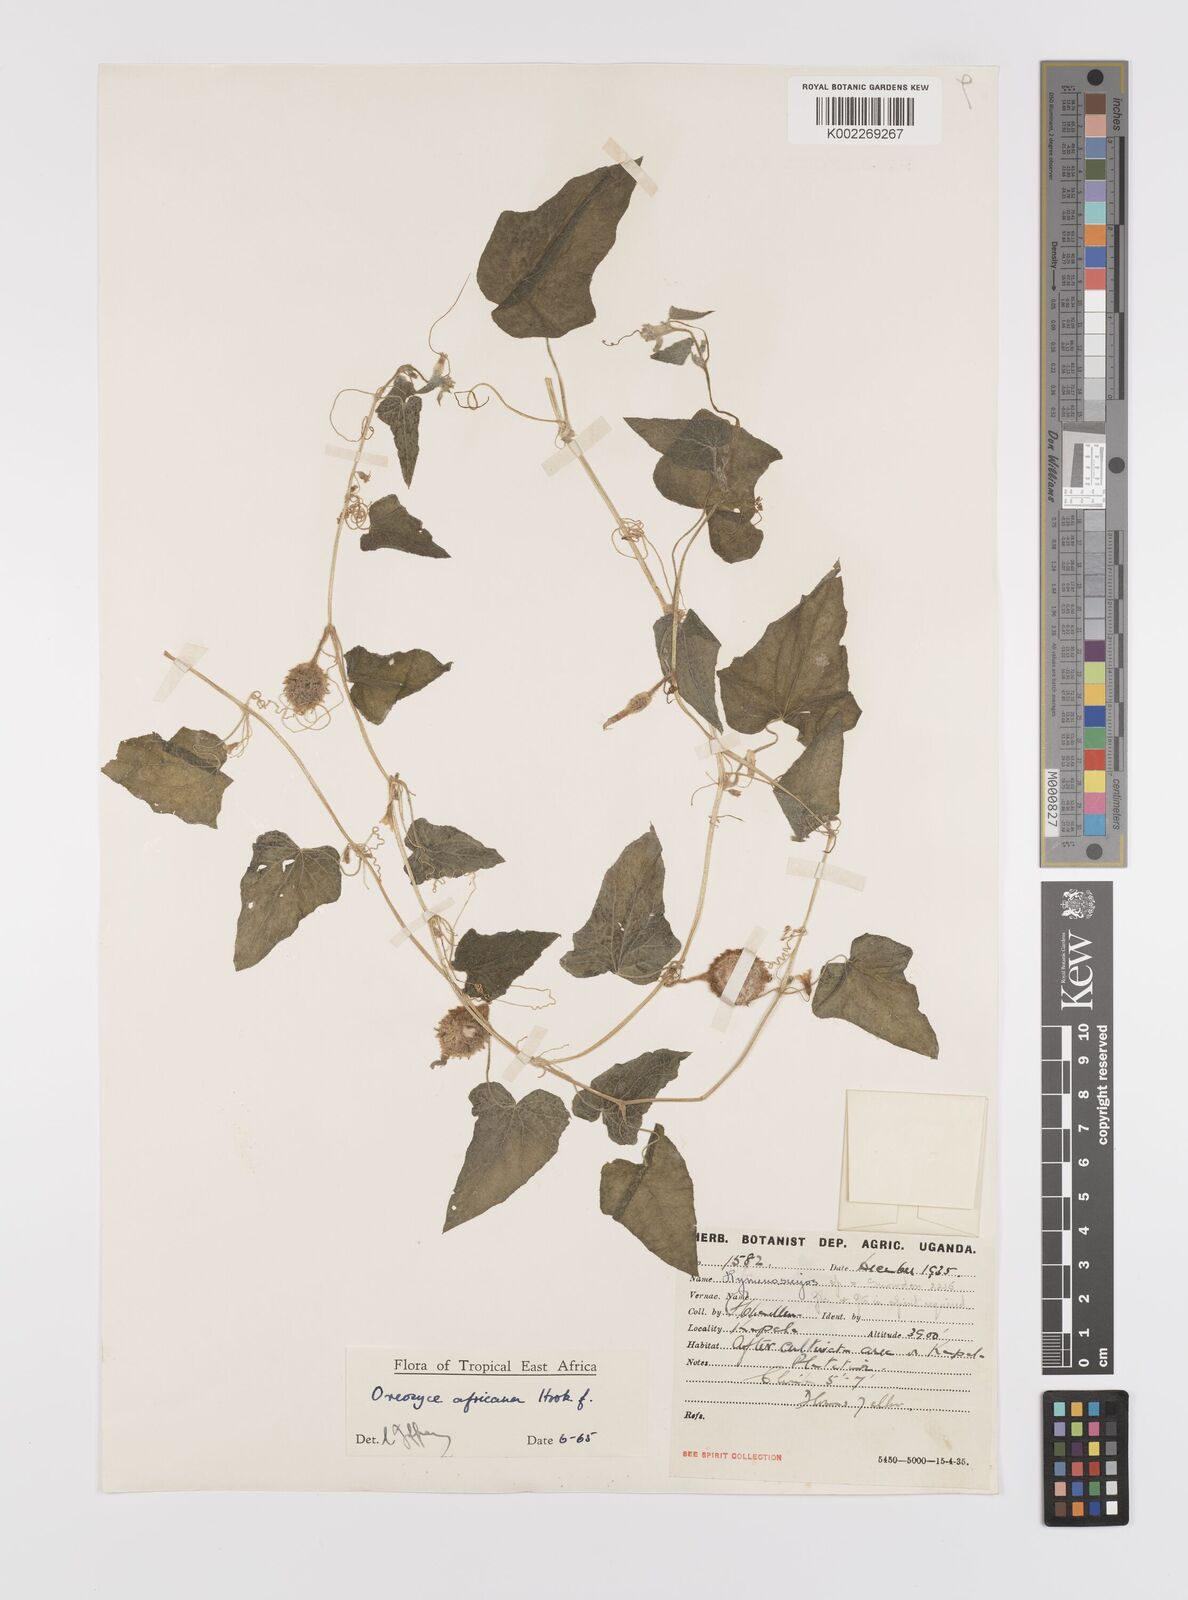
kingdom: Plantae
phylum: Tracheophyta
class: Magnoliopsida
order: Cucurbitales
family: Cucurbitaceae
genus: Cucumis
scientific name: Cucumis oreosyce
